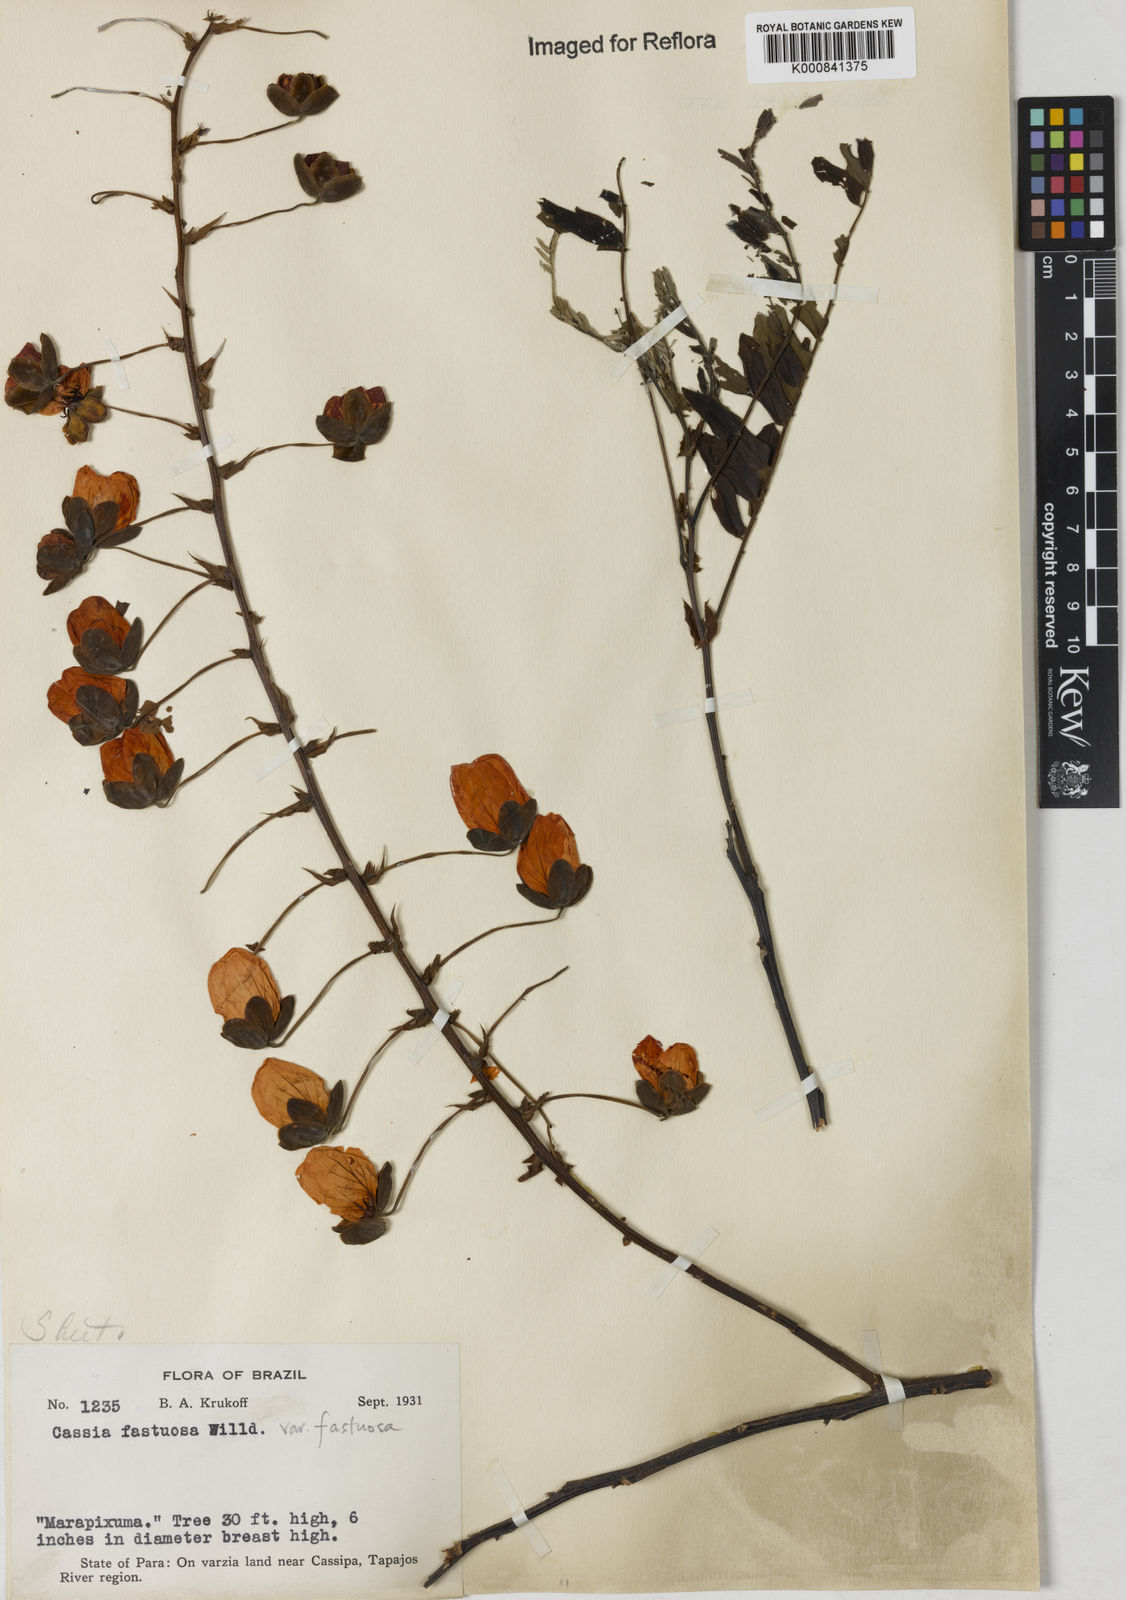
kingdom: Plantae
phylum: Tracheophyta
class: Magnoliopsida
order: Fabales
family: Fabaceae
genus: Cassia
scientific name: Cassia
